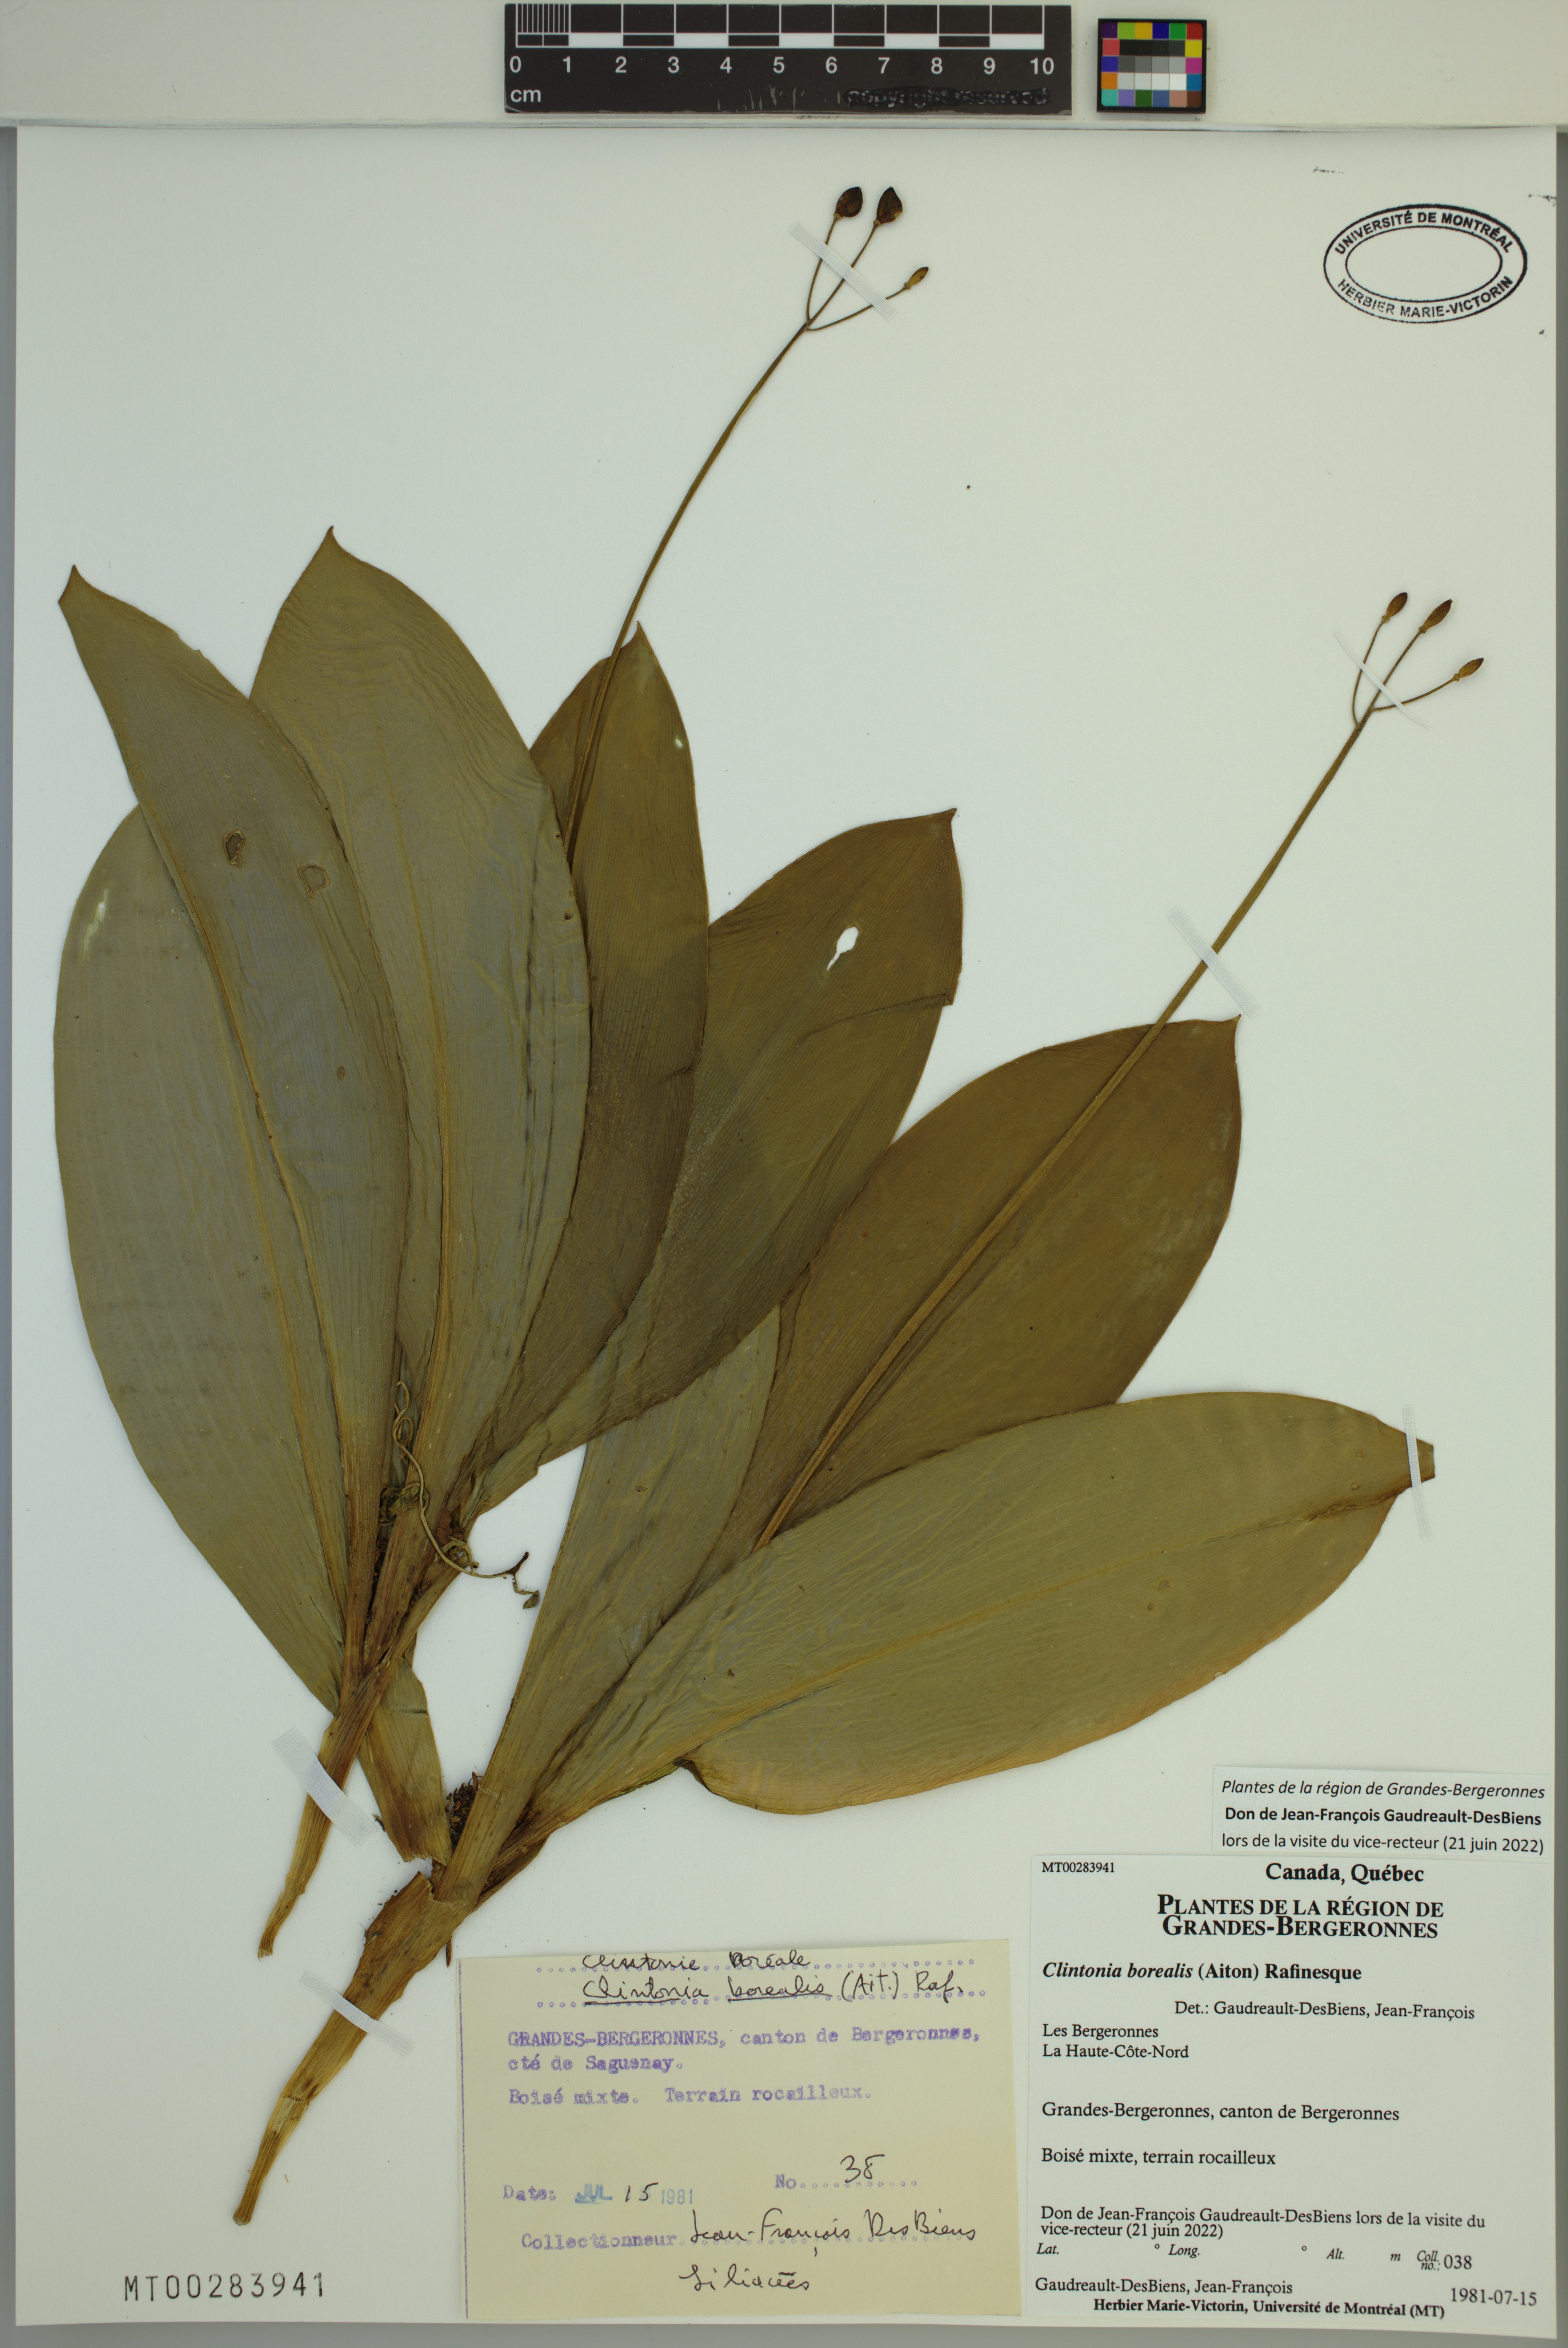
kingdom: Plantae
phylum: Tracheophyta
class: Liliopsida
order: Liliales
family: Liliaceae
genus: Clintonia
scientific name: Clintonia borealis
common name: Yellow clintonia
